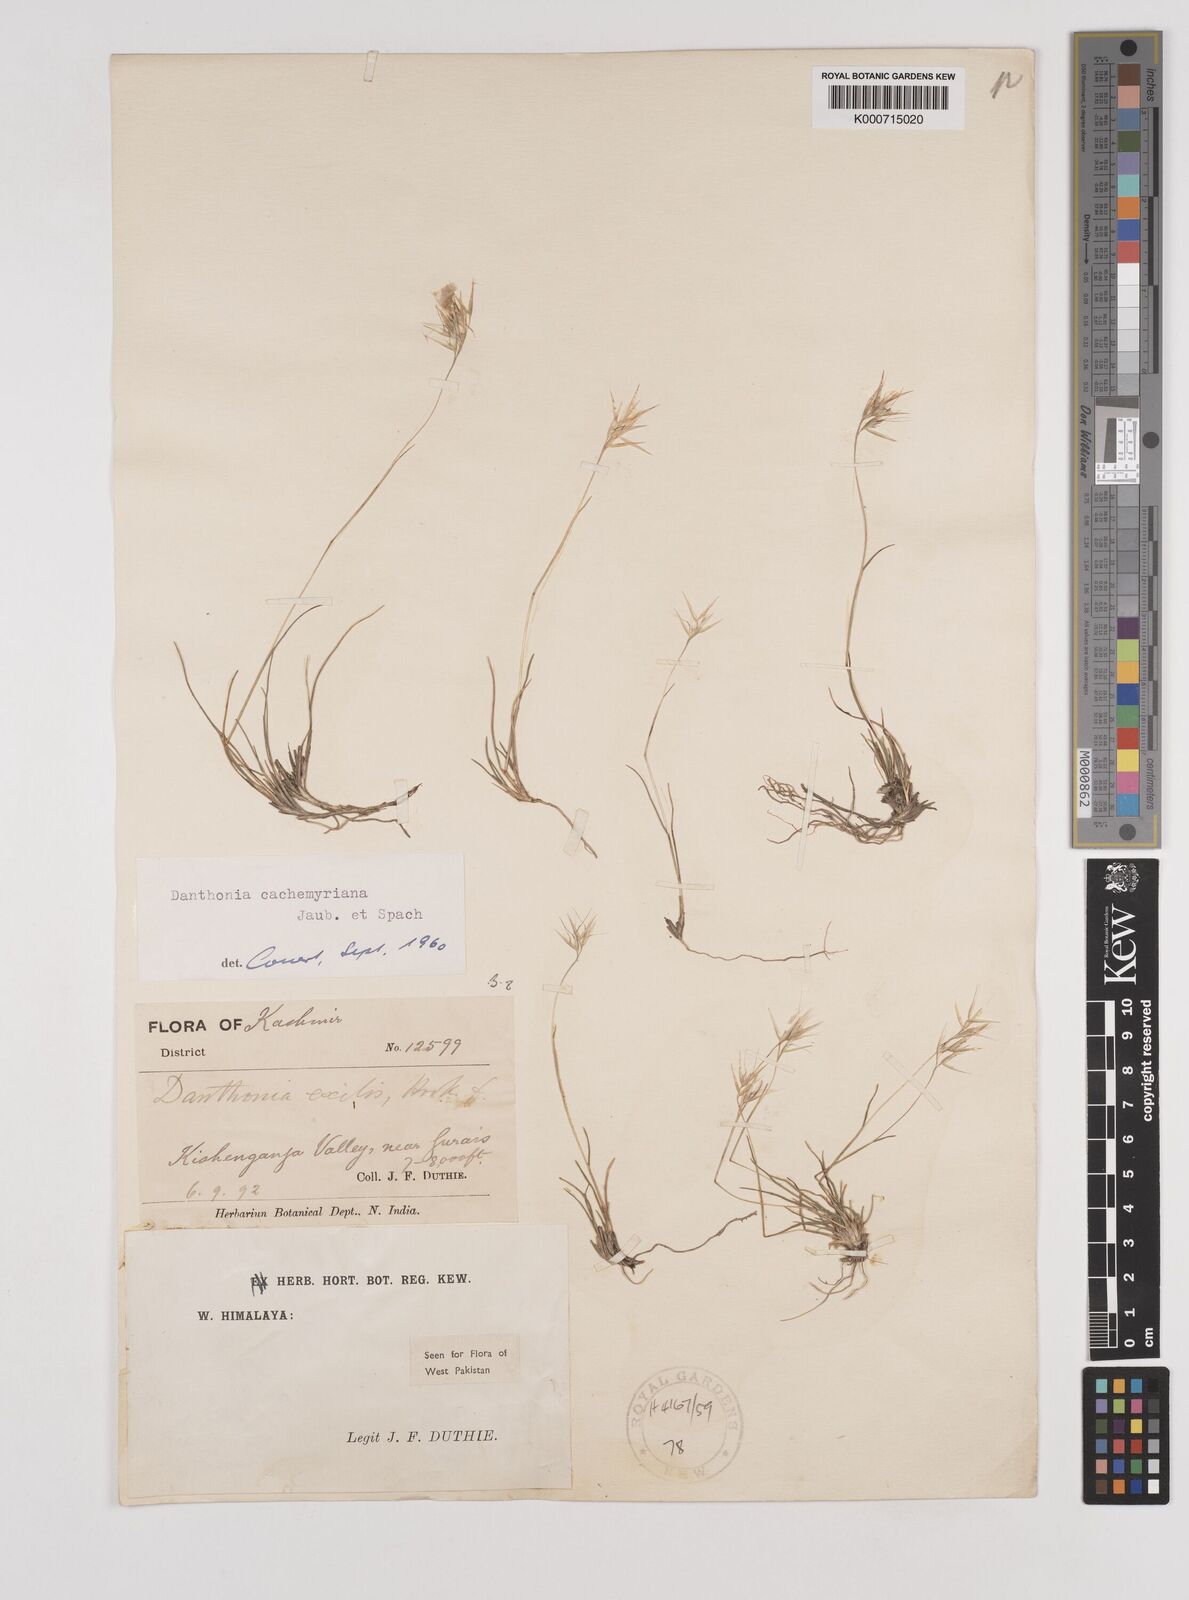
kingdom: Plantae
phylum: Tracheophyta
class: Liliopsida
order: Poales
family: Poaceae
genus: Rytidosperma
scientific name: Rytidosperma
